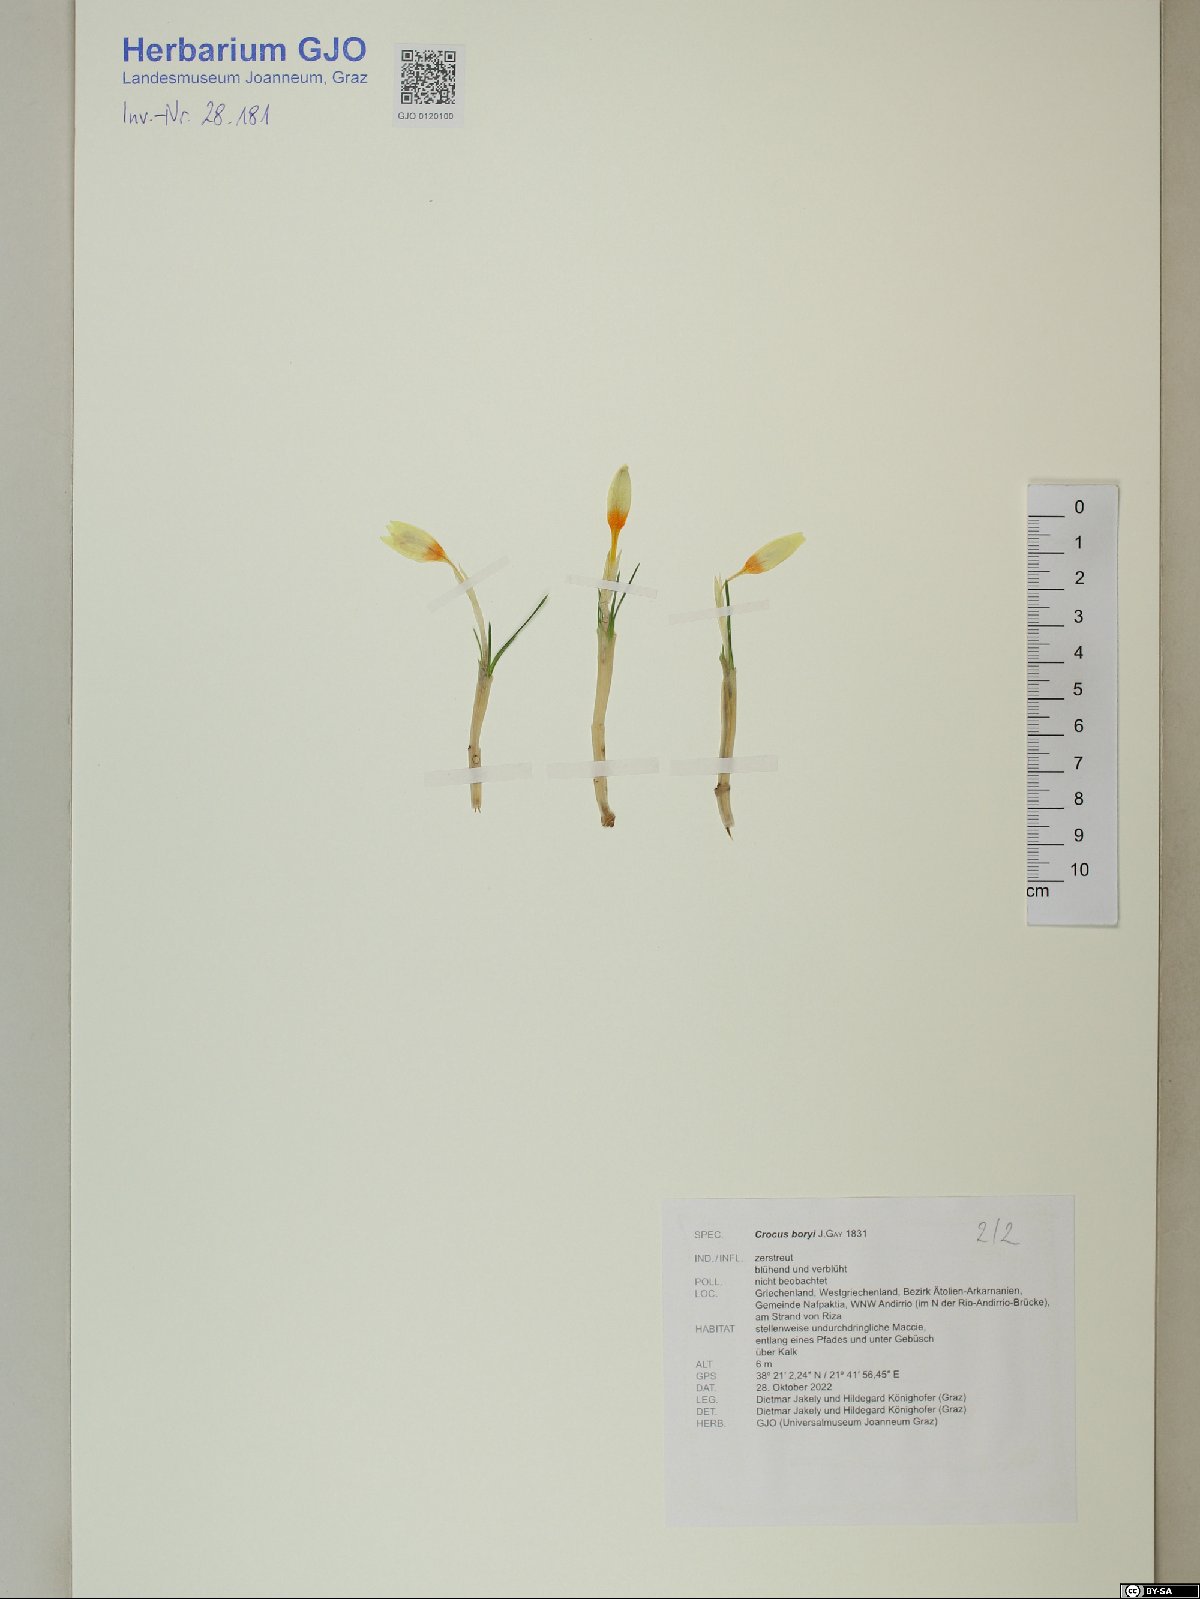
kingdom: Plantae
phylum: Tracheophyta
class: Liliopsida
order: Asparagales
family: Iridaceae
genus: Crocus
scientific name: Crocus boryi
